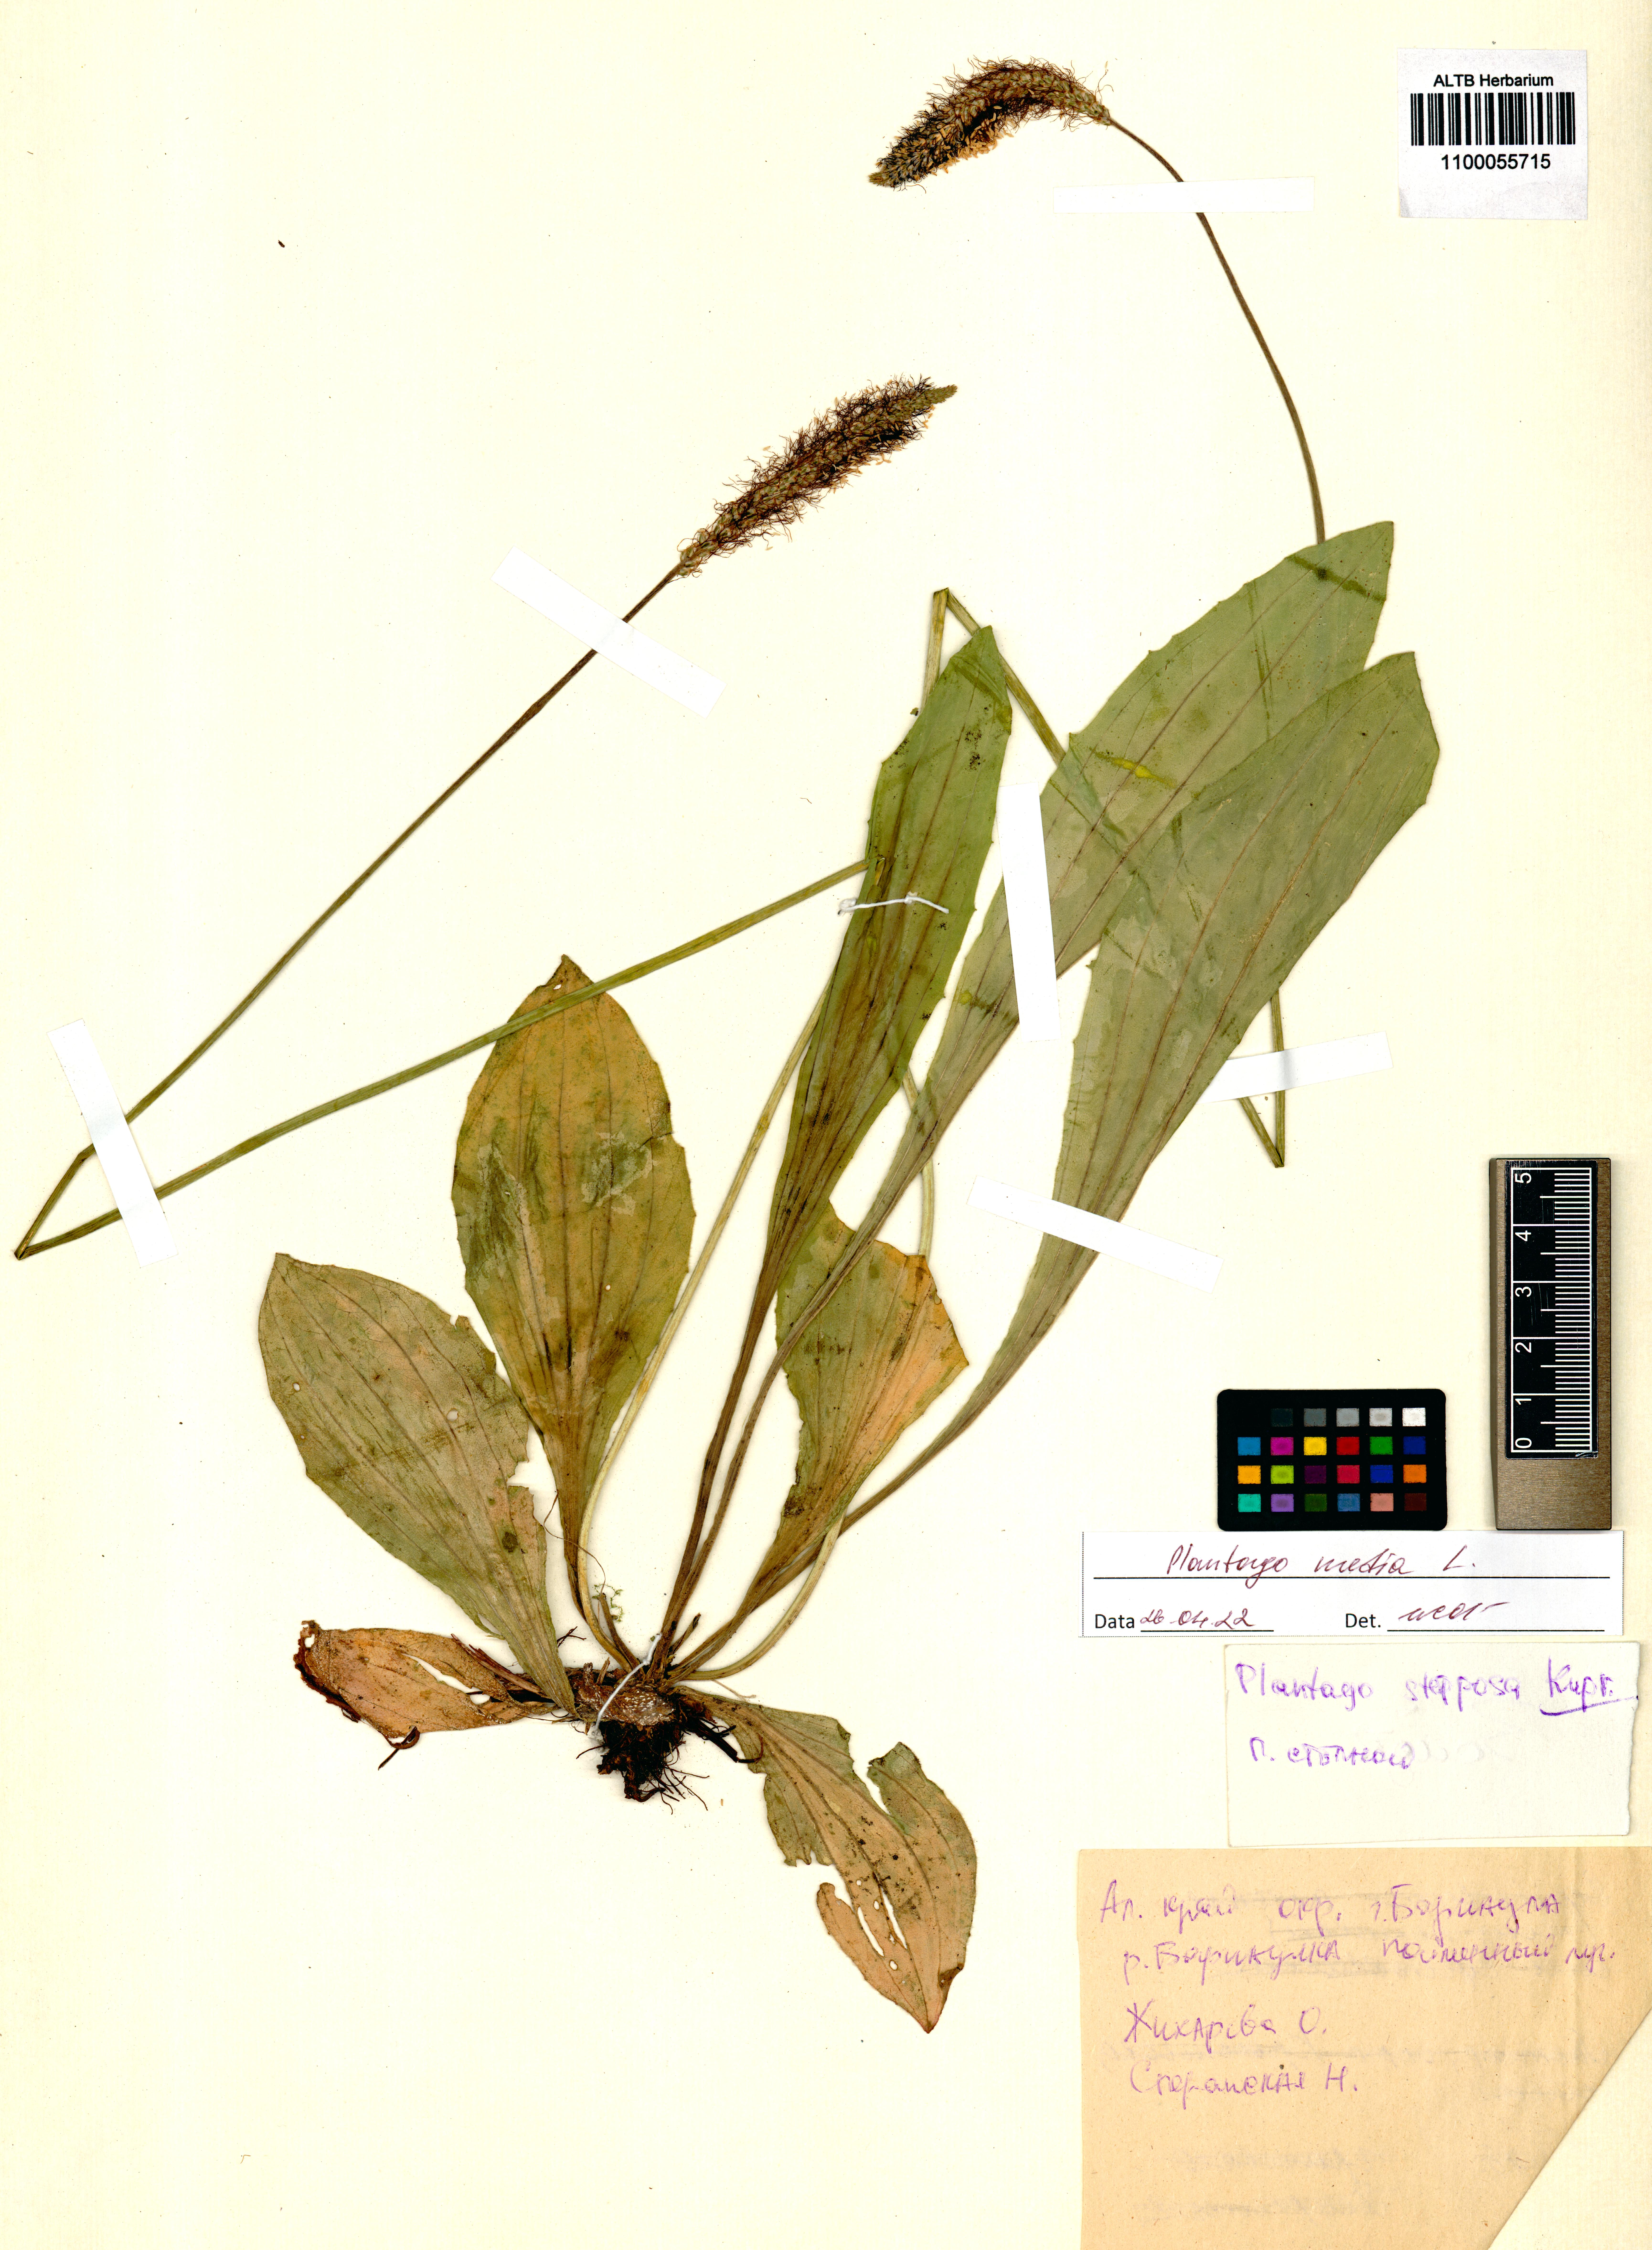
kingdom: Plantae
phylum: Tracheophyta
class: Magnoliopsida
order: Lamiales
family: Plantaginaceae
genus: Plantago
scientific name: Plantago media
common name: Hoary plantain
